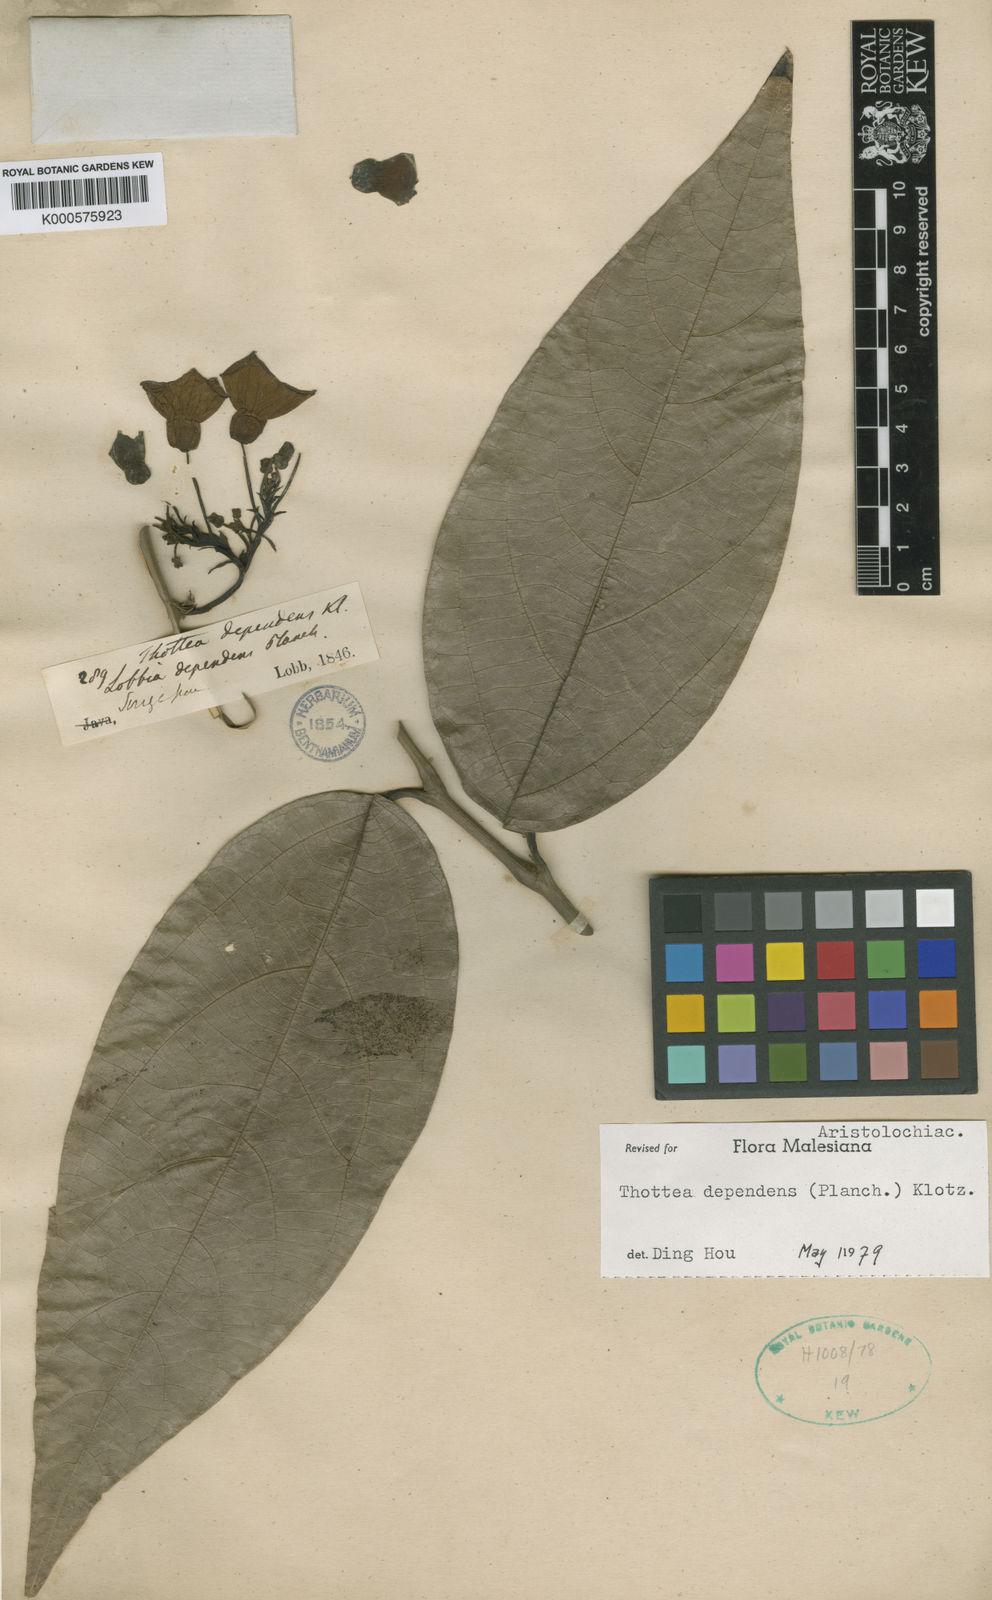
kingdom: Plantae
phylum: Tracheophyta
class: Magnoliopsida
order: Piperales
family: Aristolochiaceae
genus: Thottea
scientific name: Thottea dependens
